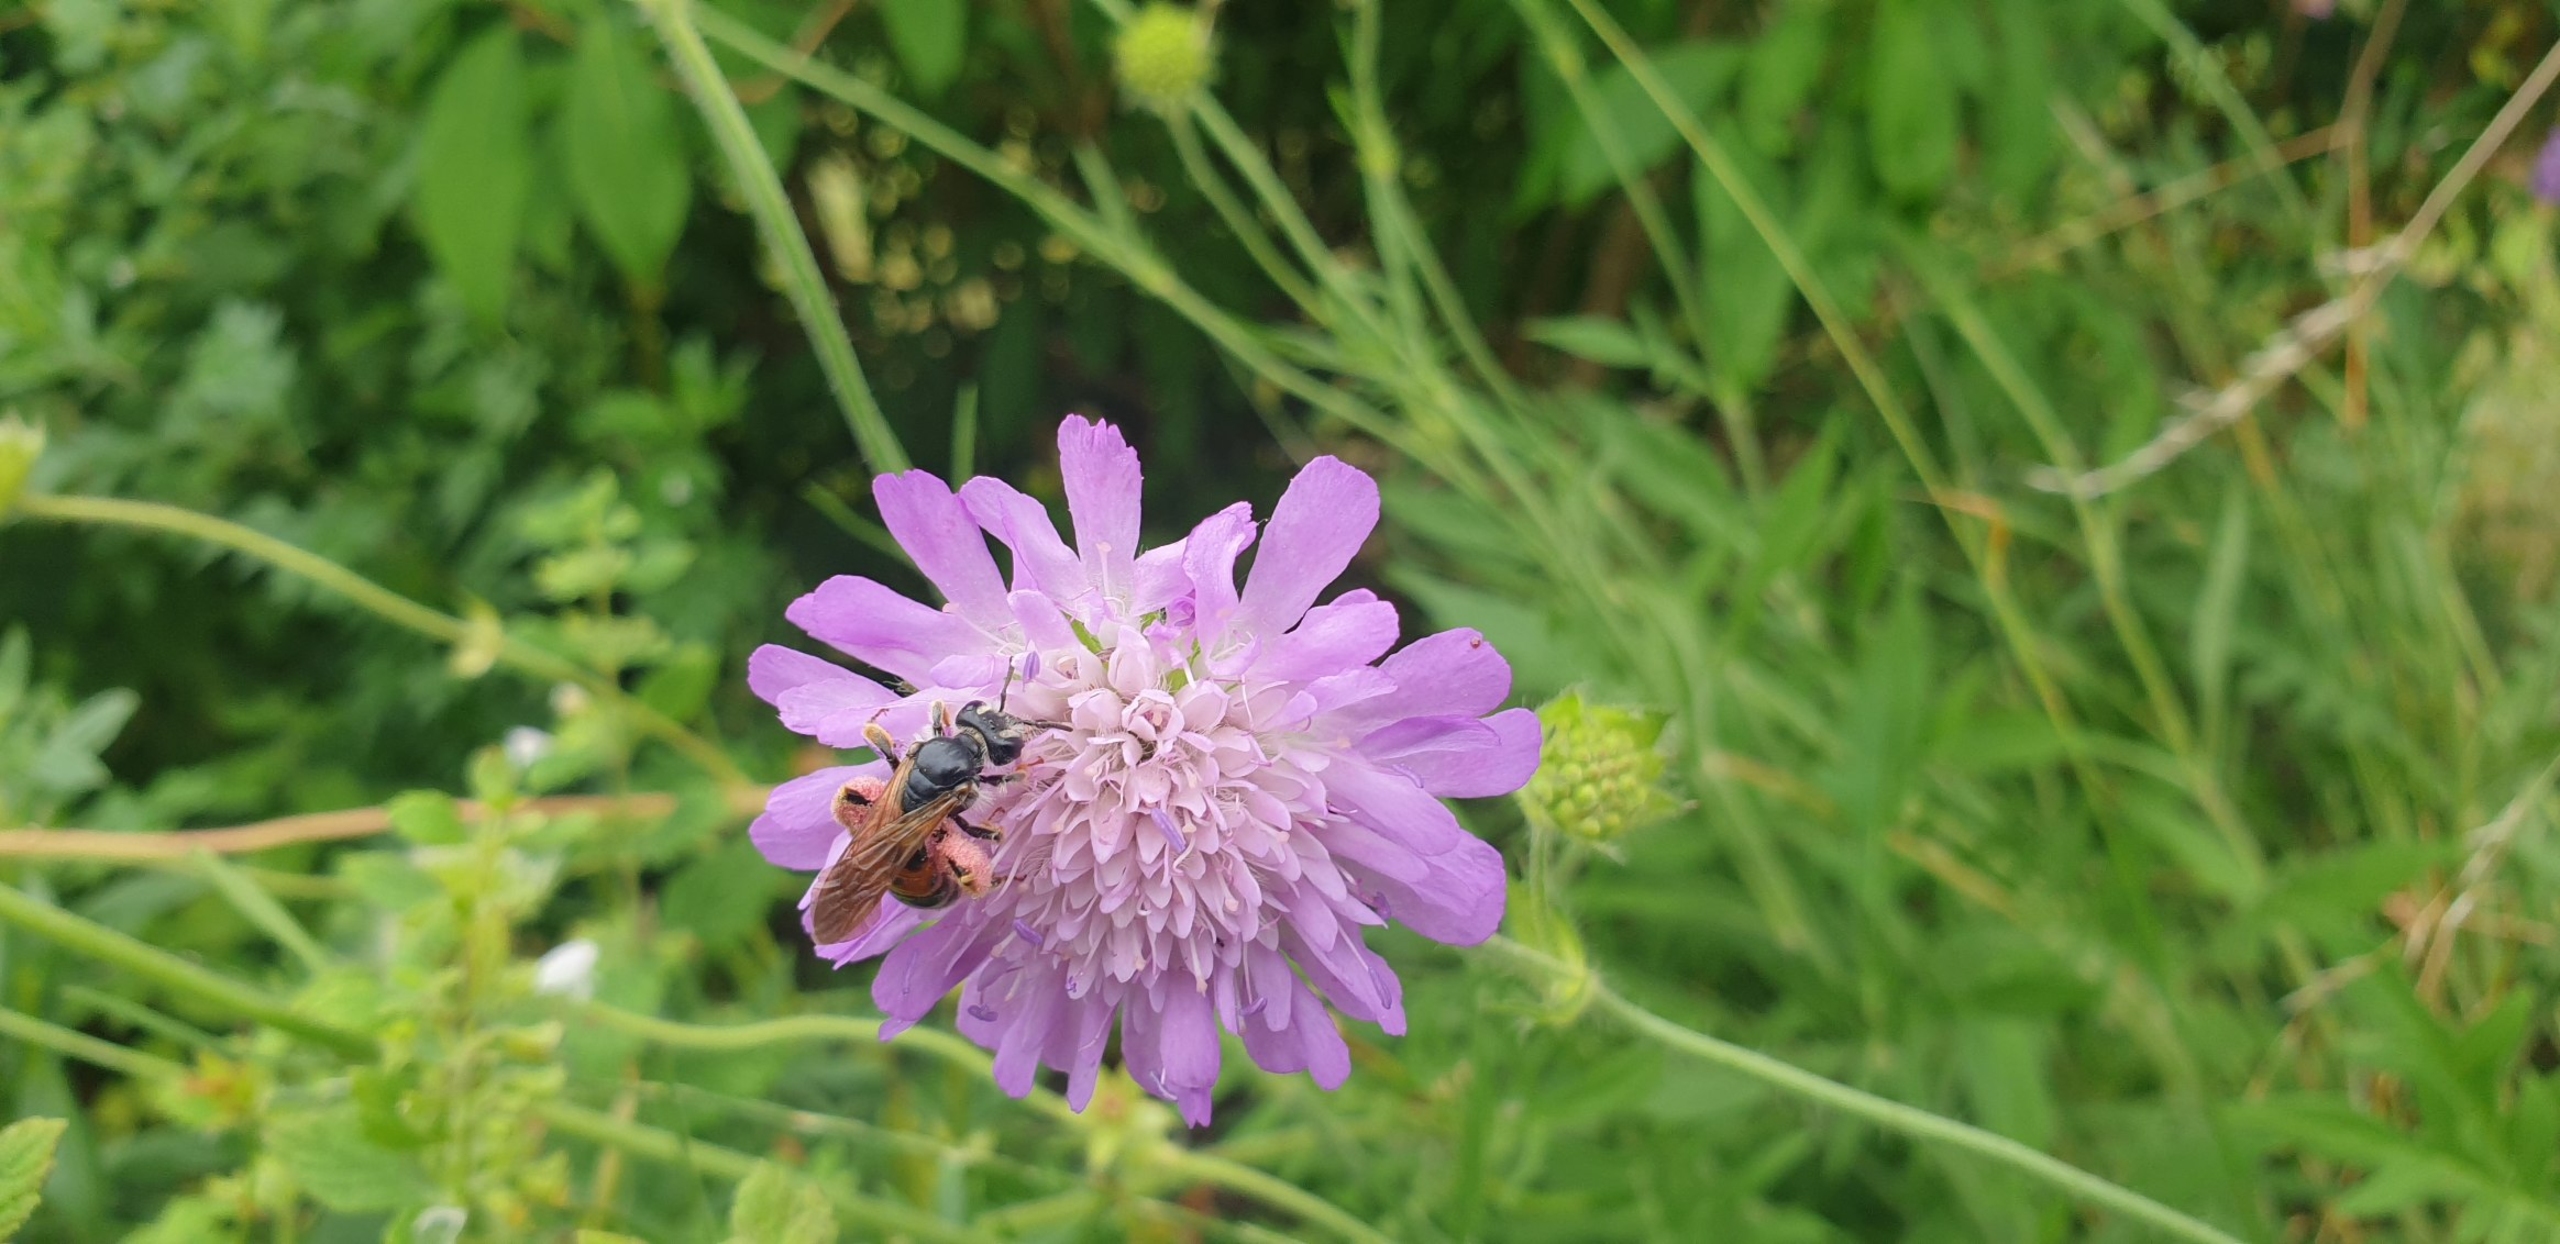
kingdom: Animalia
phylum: Arthropoda
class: Insecta
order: Hymenoptera
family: Andrenidae
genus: Andrena
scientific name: Andrena hattorfiana
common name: Blåhatjordbi
